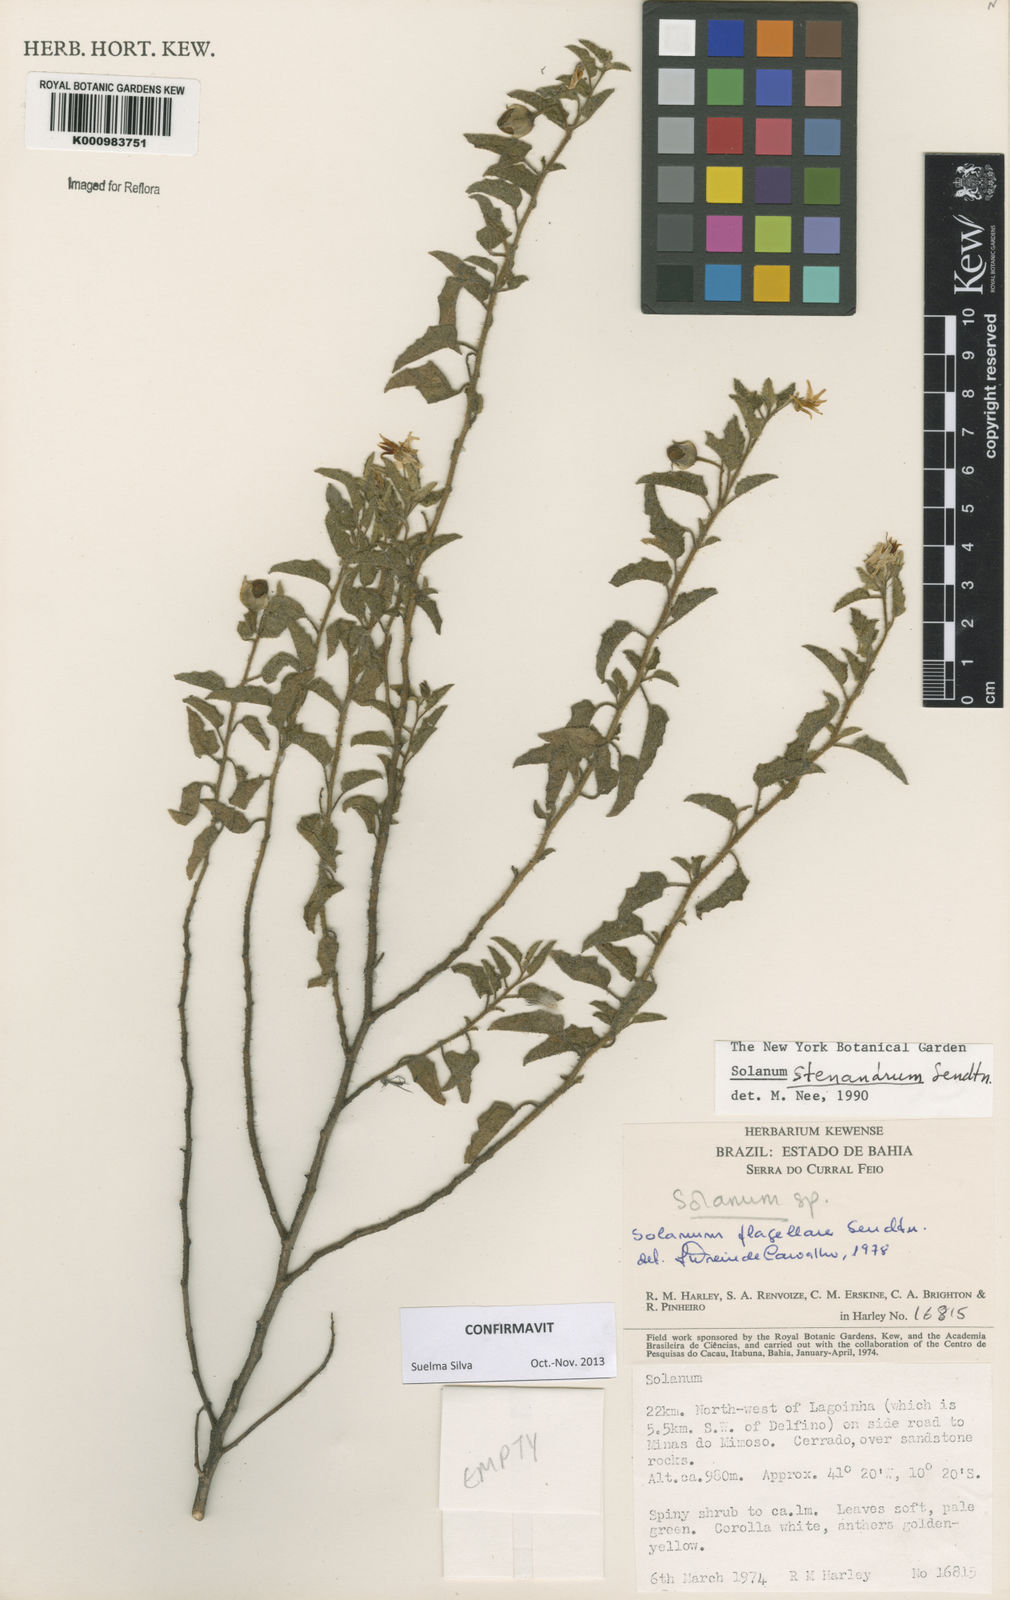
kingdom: Plantae
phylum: Tracheophyta
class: Magnoliopsida
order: Solanales
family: Solanaceae
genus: Solanum
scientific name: Solanum stenandrum
